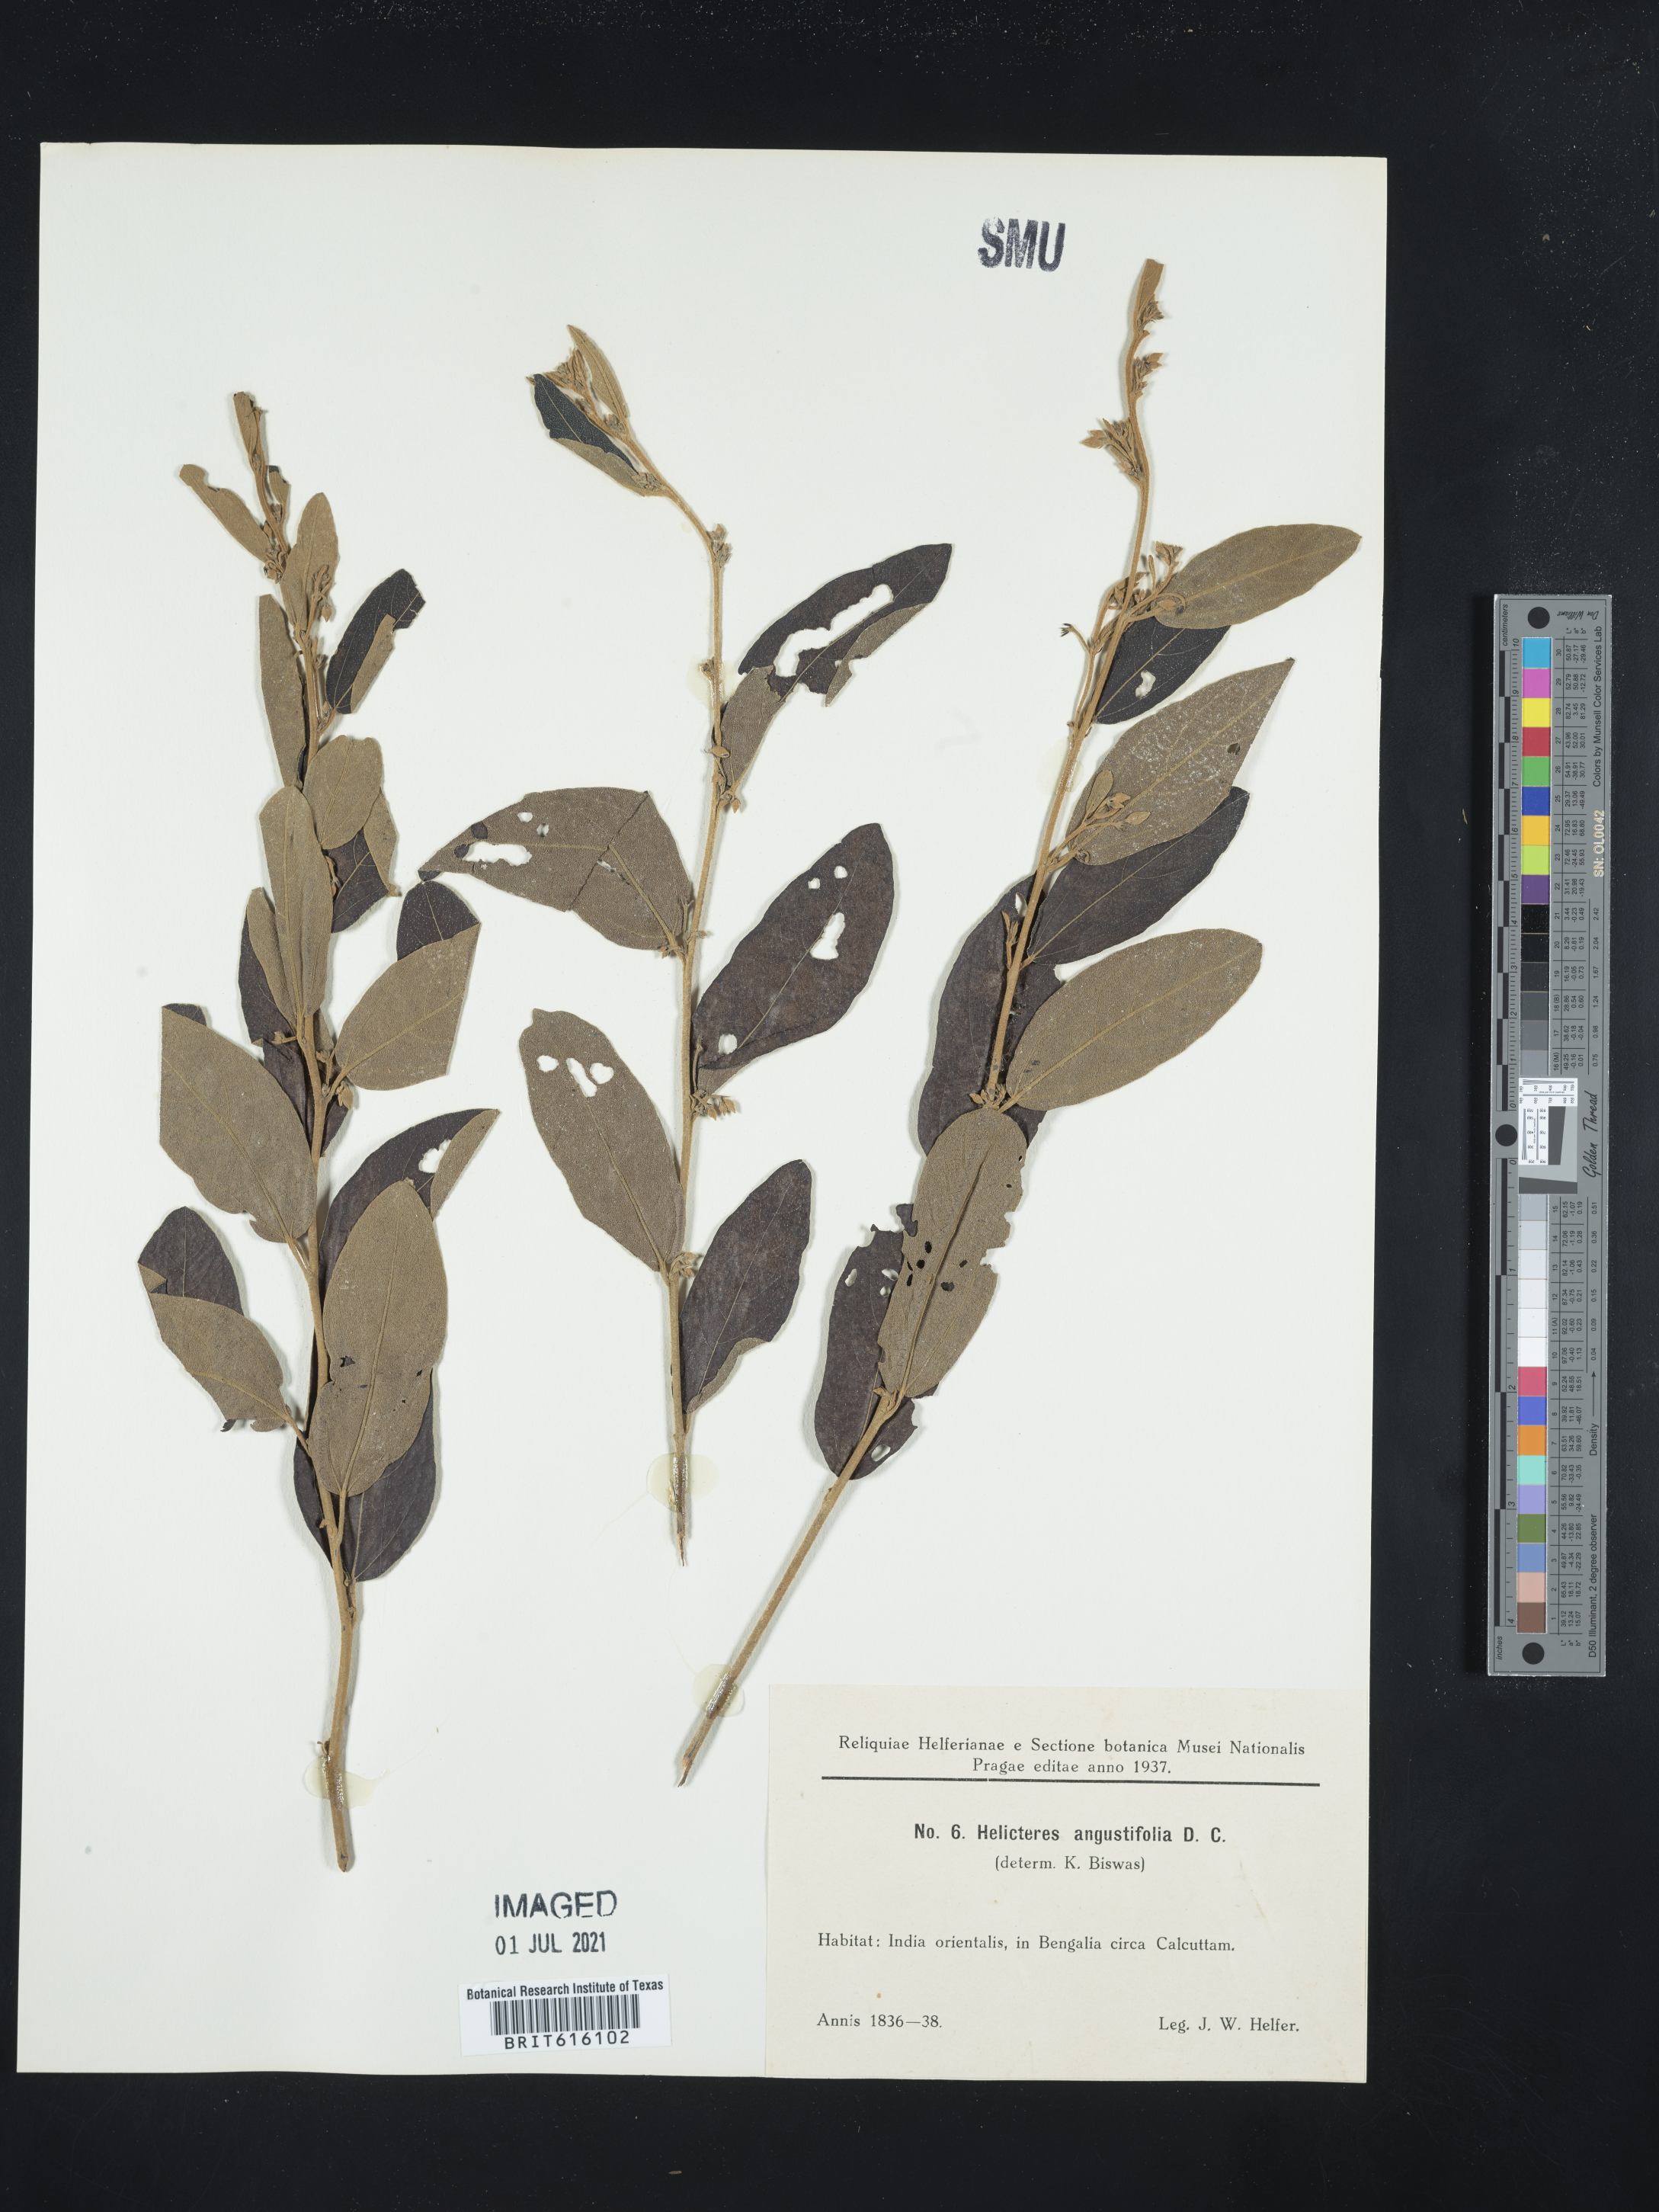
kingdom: Plantae
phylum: Tracheophyta
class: Magnoliopsida
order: Malvales
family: Malvaceae
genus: Helicteres
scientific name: Helicteres angustifolia
